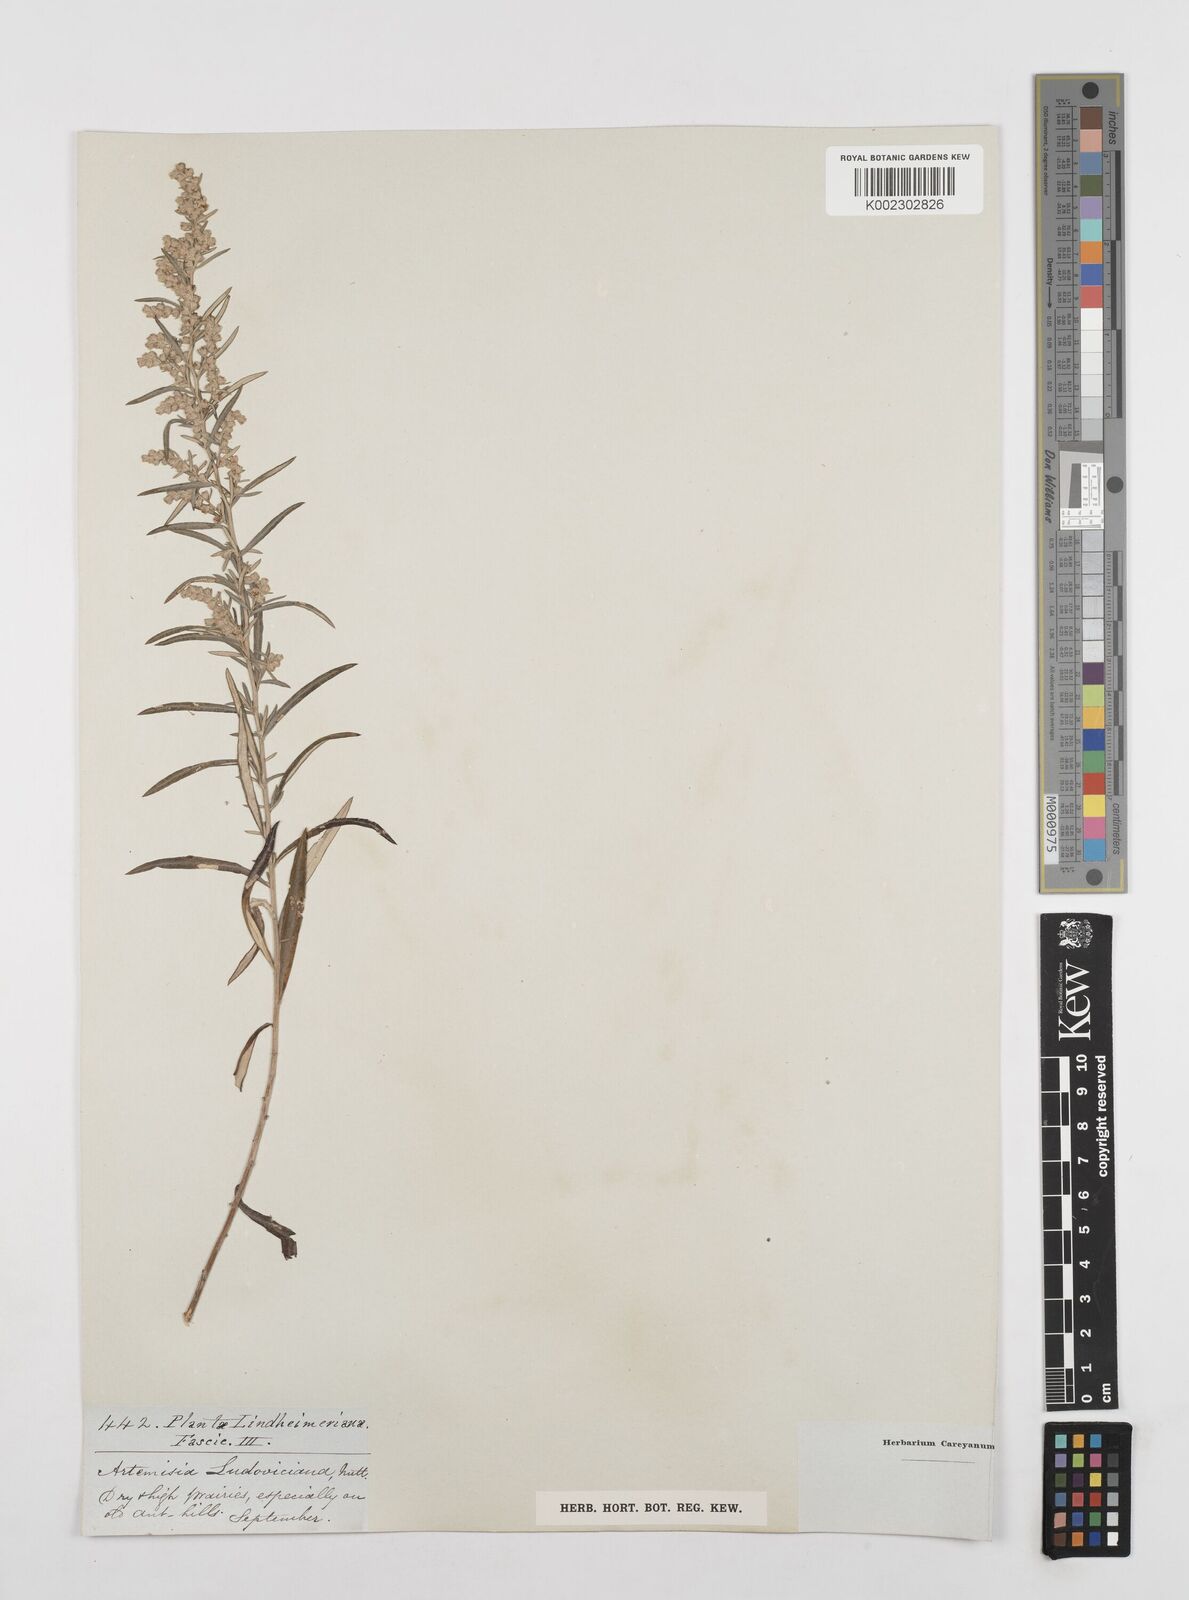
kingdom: Plantae
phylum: Tracheophyta
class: Magnoliopsida
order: Asterales
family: Asteraceae
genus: Artemisia
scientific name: Artemisia ludoviciana
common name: Western mugwort
